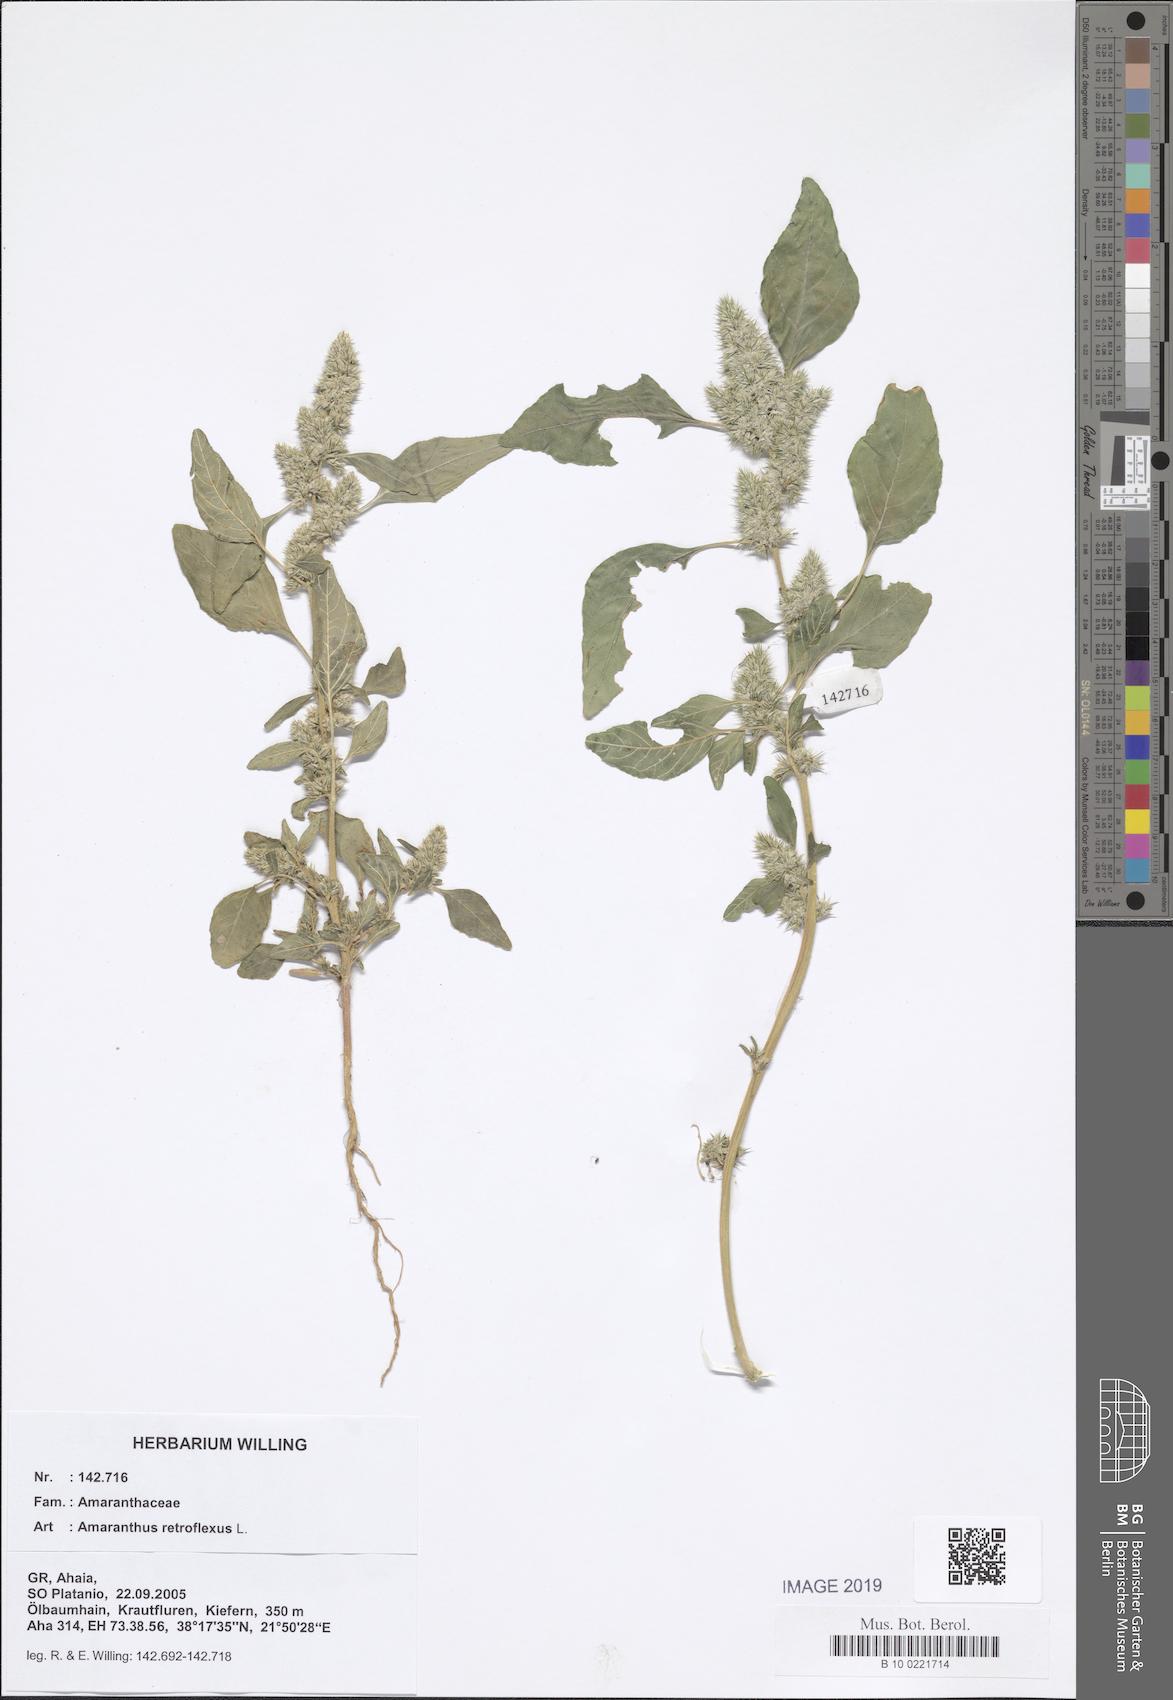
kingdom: Plantae
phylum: Tracheophyta
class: Magnoliopsida
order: Caryophyllales
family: Amaranthaceae
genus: Amaranthus
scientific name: Amaranthus retroflexus
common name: Redroot amaranth
